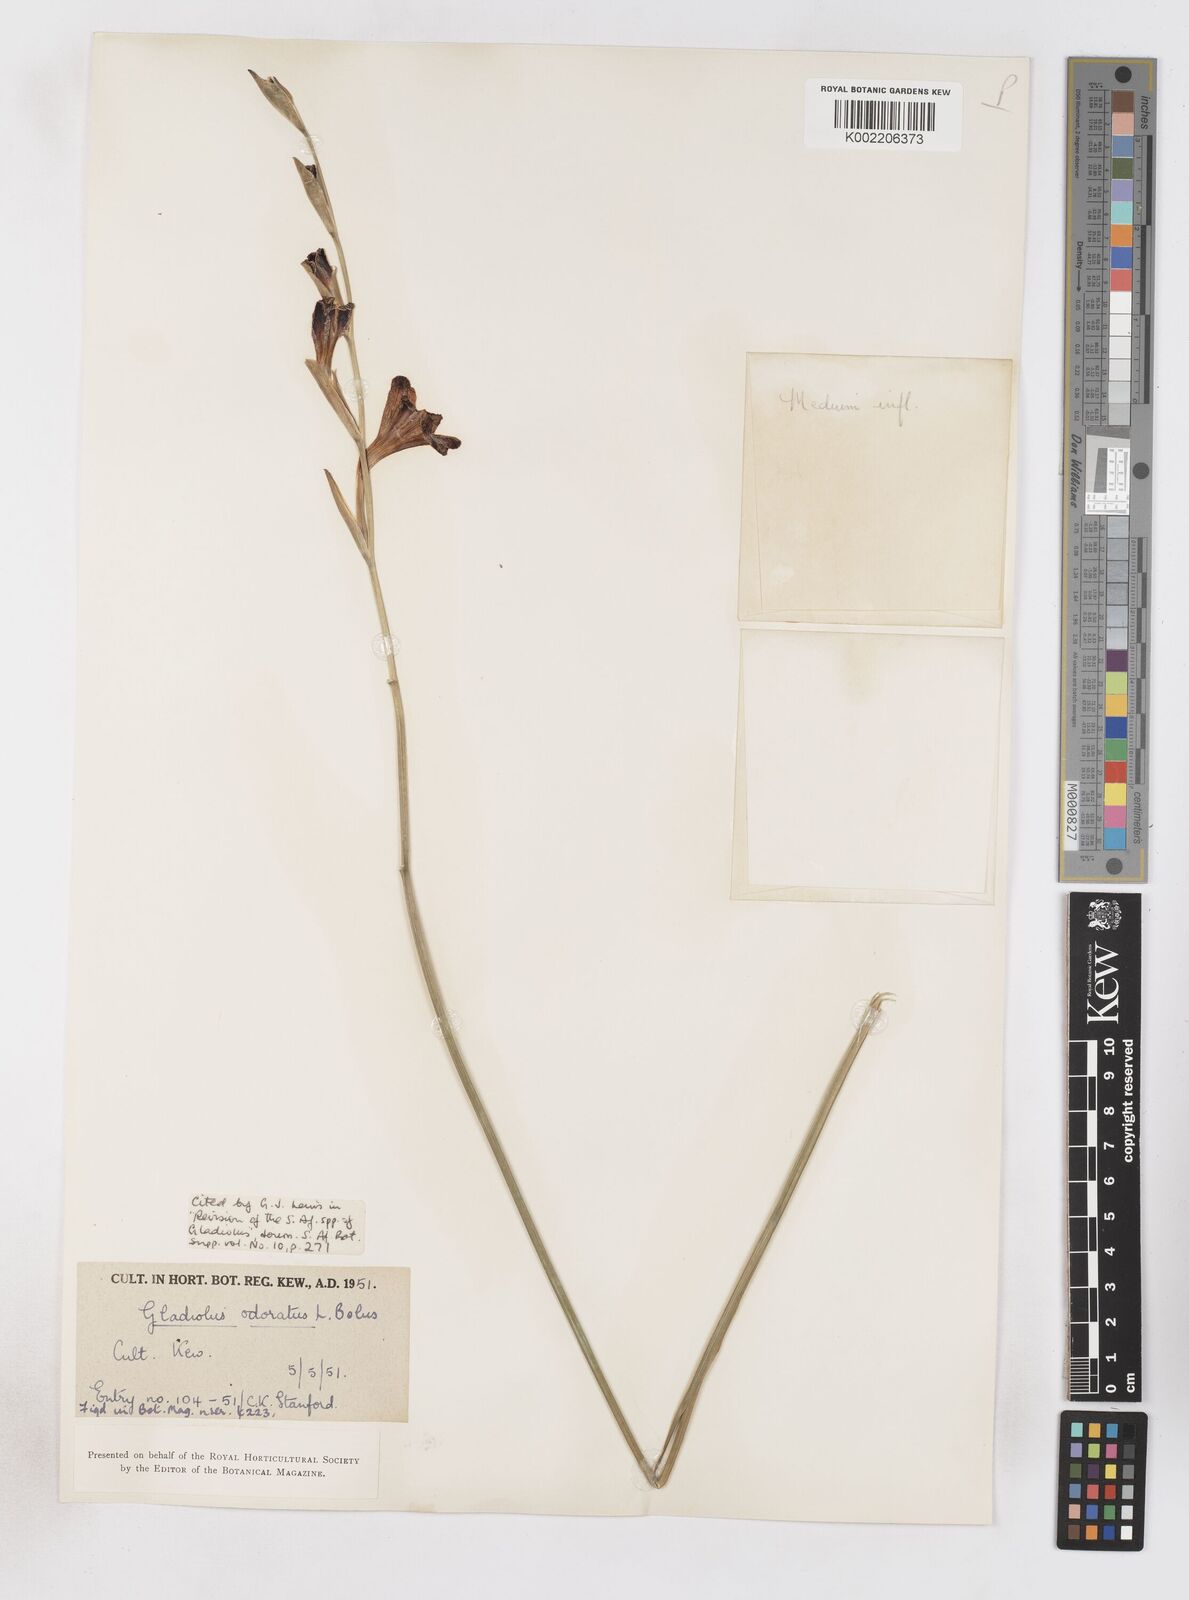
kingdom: Plantae
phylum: Tracheophyta
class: Liliopsida
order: Asparagales
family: Iridaceae
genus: Gladiolus
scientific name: Gladiolus guthriei
